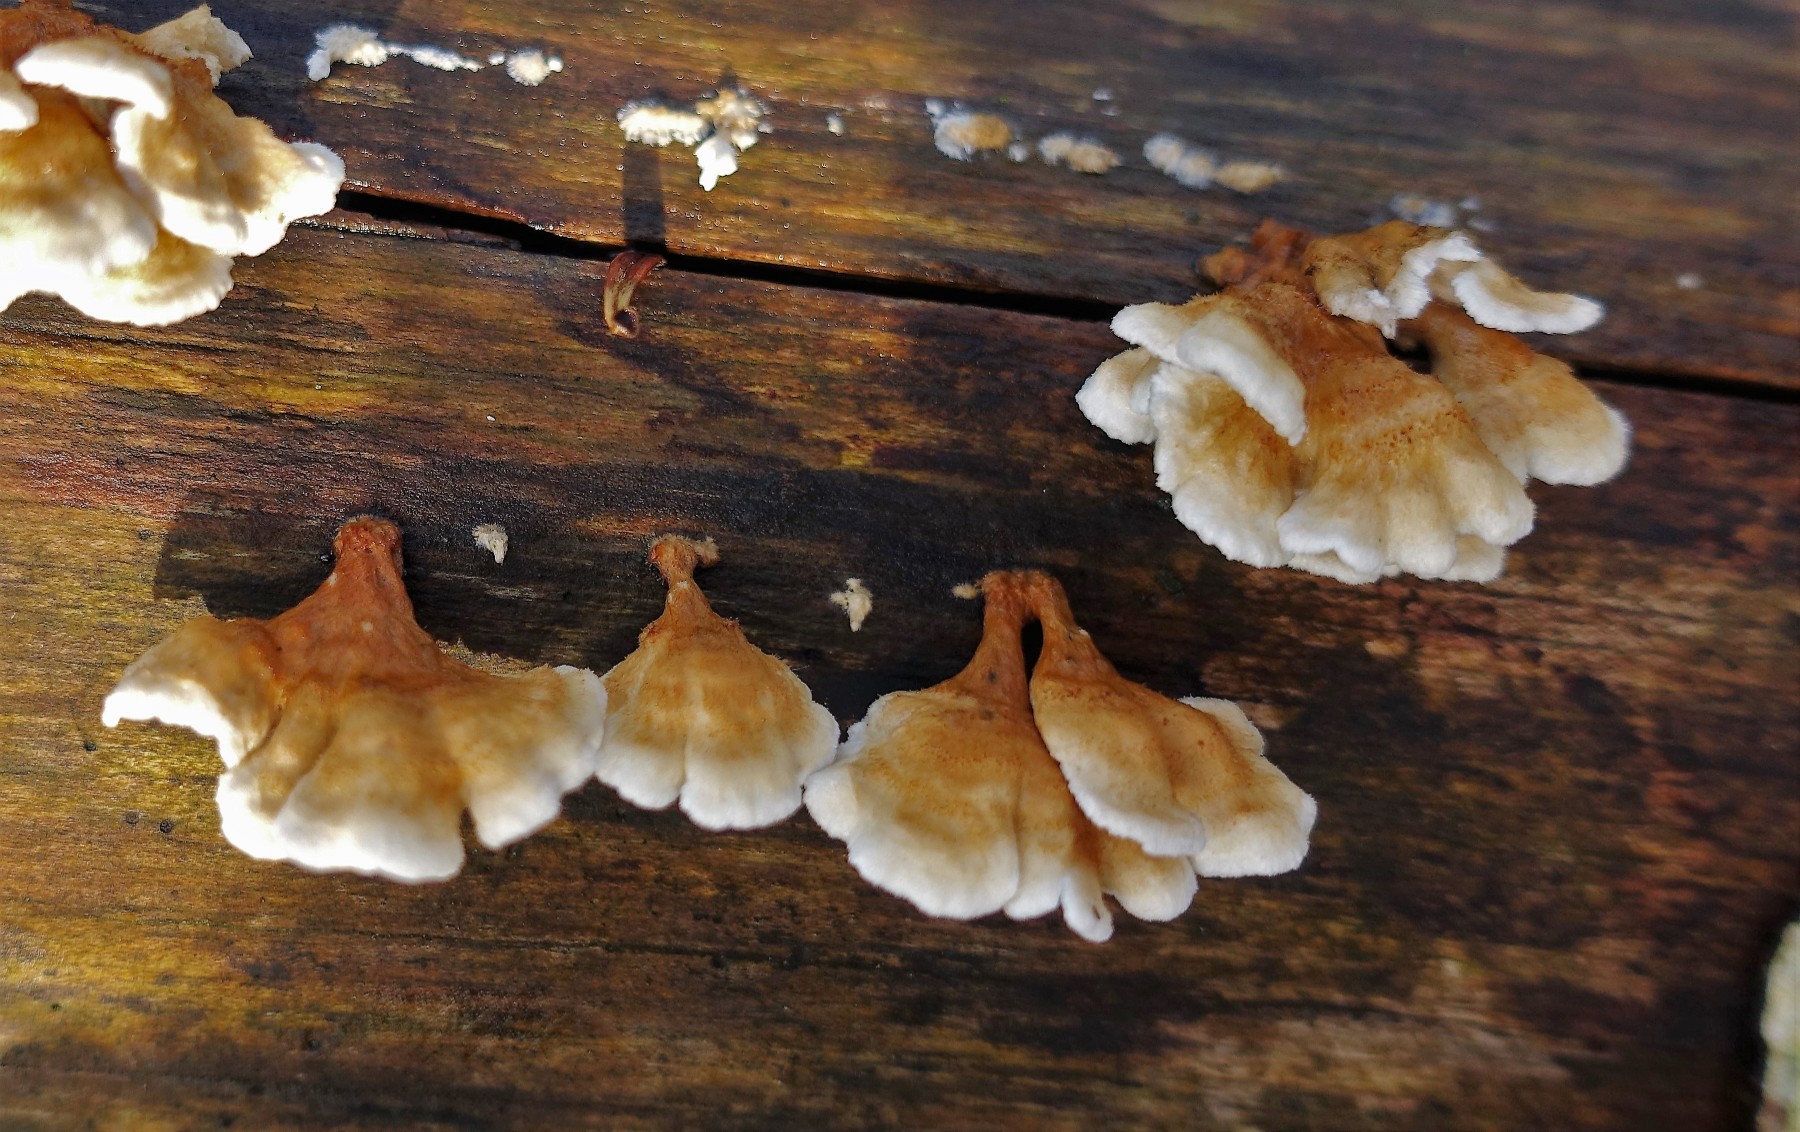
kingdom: Fungi
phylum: Basidiomycota
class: Agaricomycetes
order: Amylocorticiales
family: Amylocorticiaceae
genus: Plicaturopsis
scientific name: Plicaturopsis crispa
